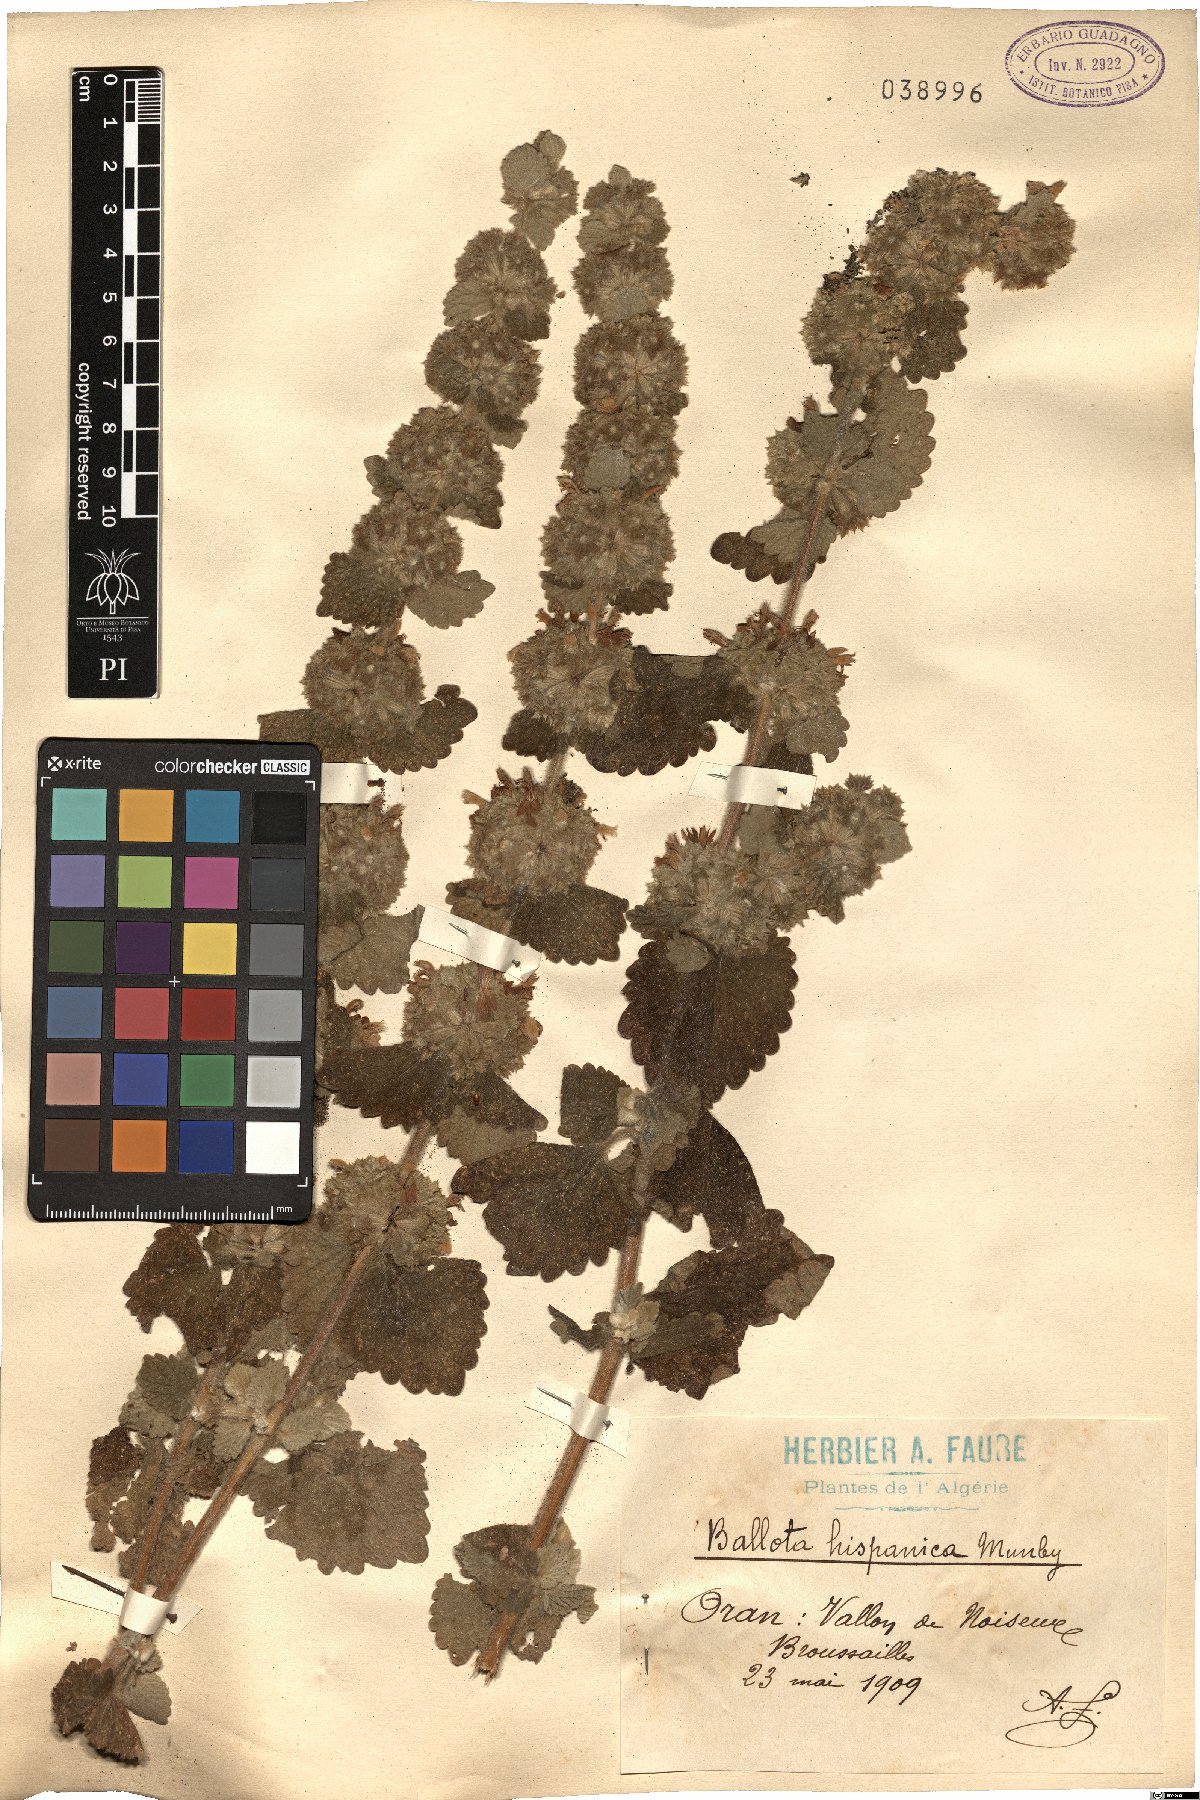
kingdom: Plantae
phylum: Tracheophyta
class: Magnoliopsida
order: Lamiales
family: Lamiaceae
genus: Pseudodictamnus
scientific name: Pseudodictamnus hispanicus
